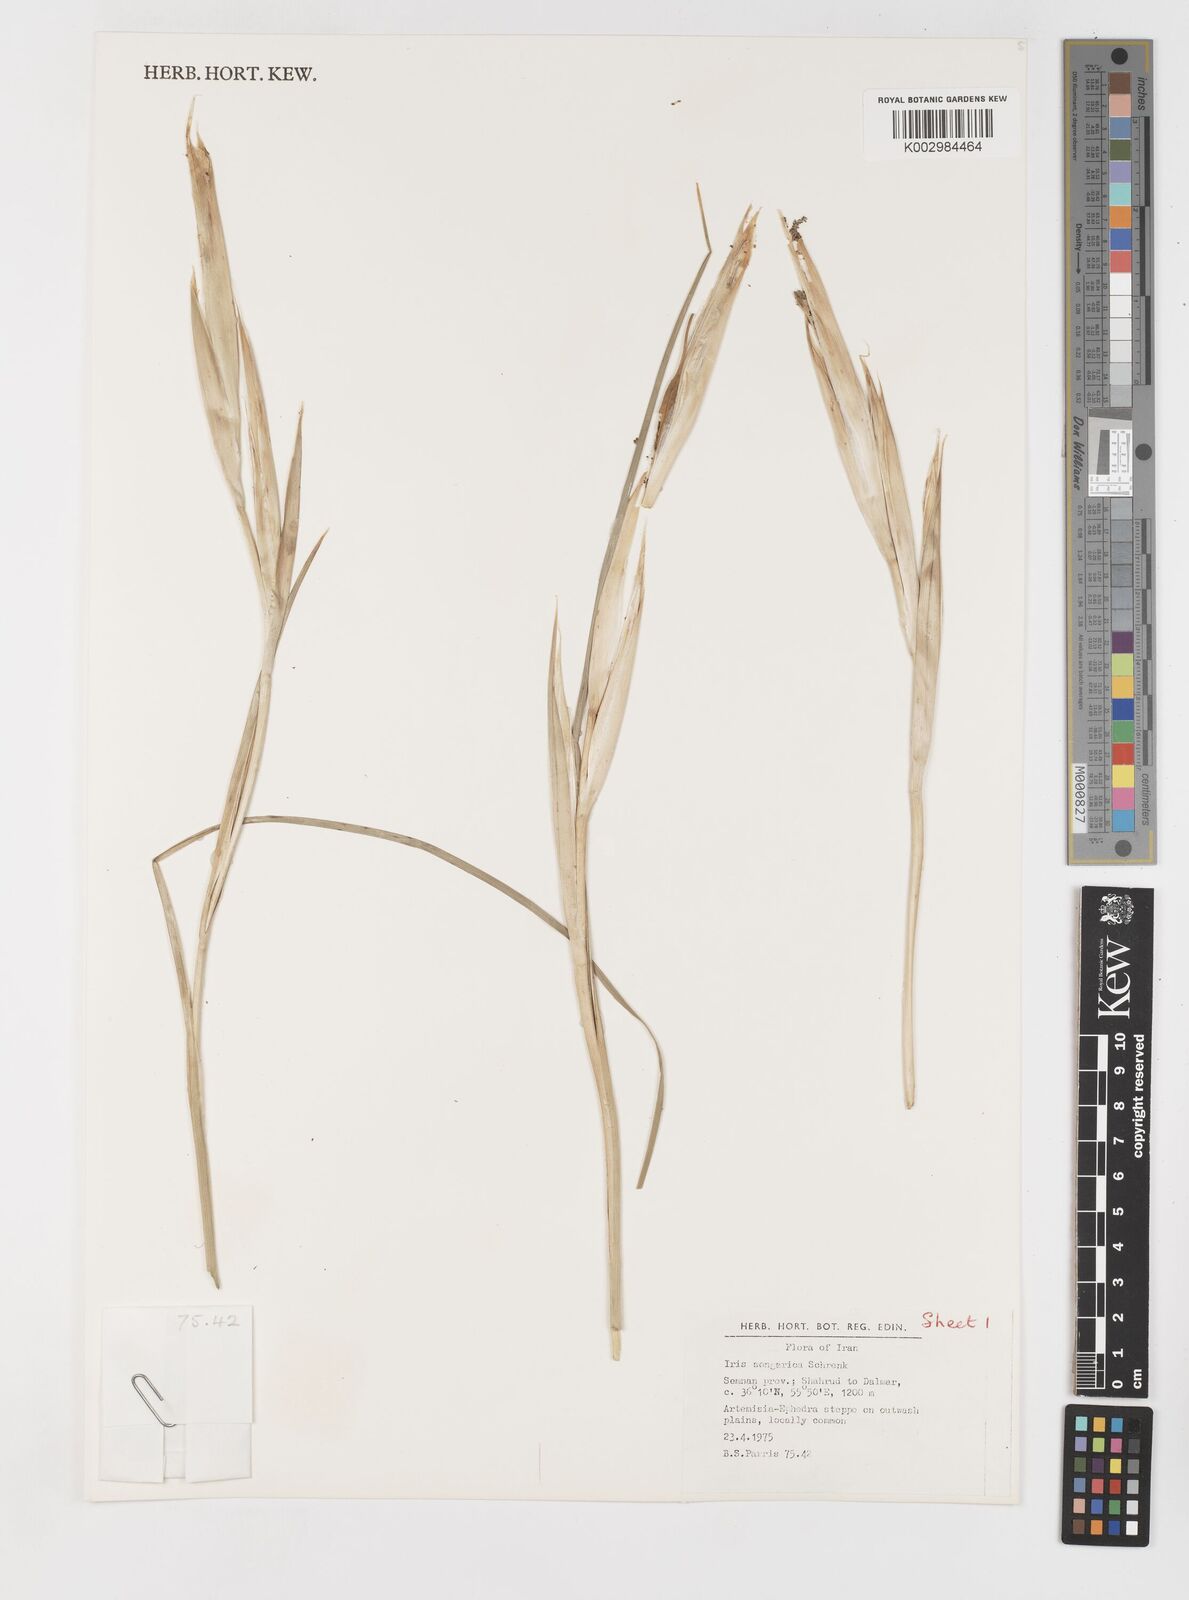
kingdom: Plantae
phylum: Tracheophyta
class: Liliopsida
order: Asparagales
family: Iridaceae
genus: Iris
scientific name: Iris songarica
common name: Songar iris
